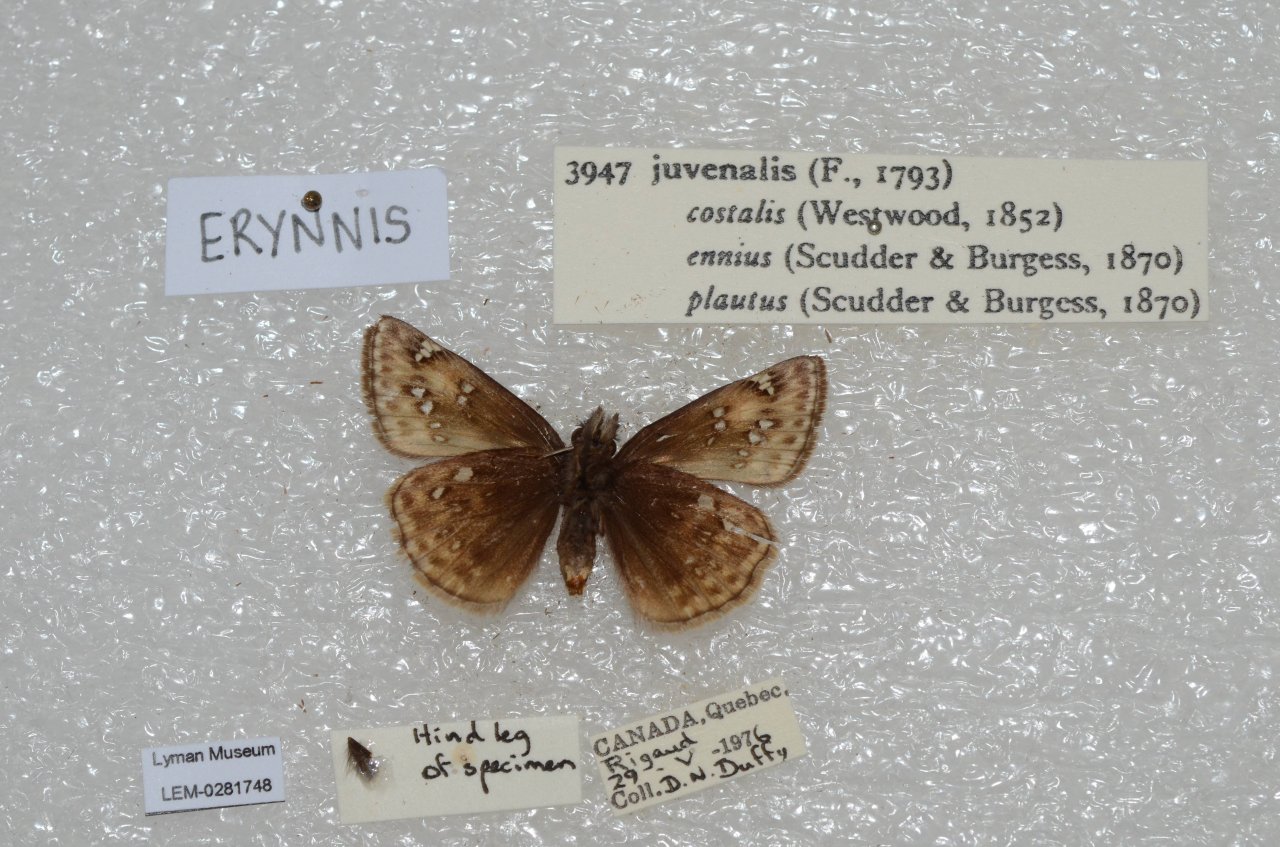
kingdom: Animalia
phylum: Arthropoda
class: Insecta
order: Lepidoptera
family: Hesperiidae
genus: Gesta
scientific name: Gesta
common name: Juvenal's Duskywing
